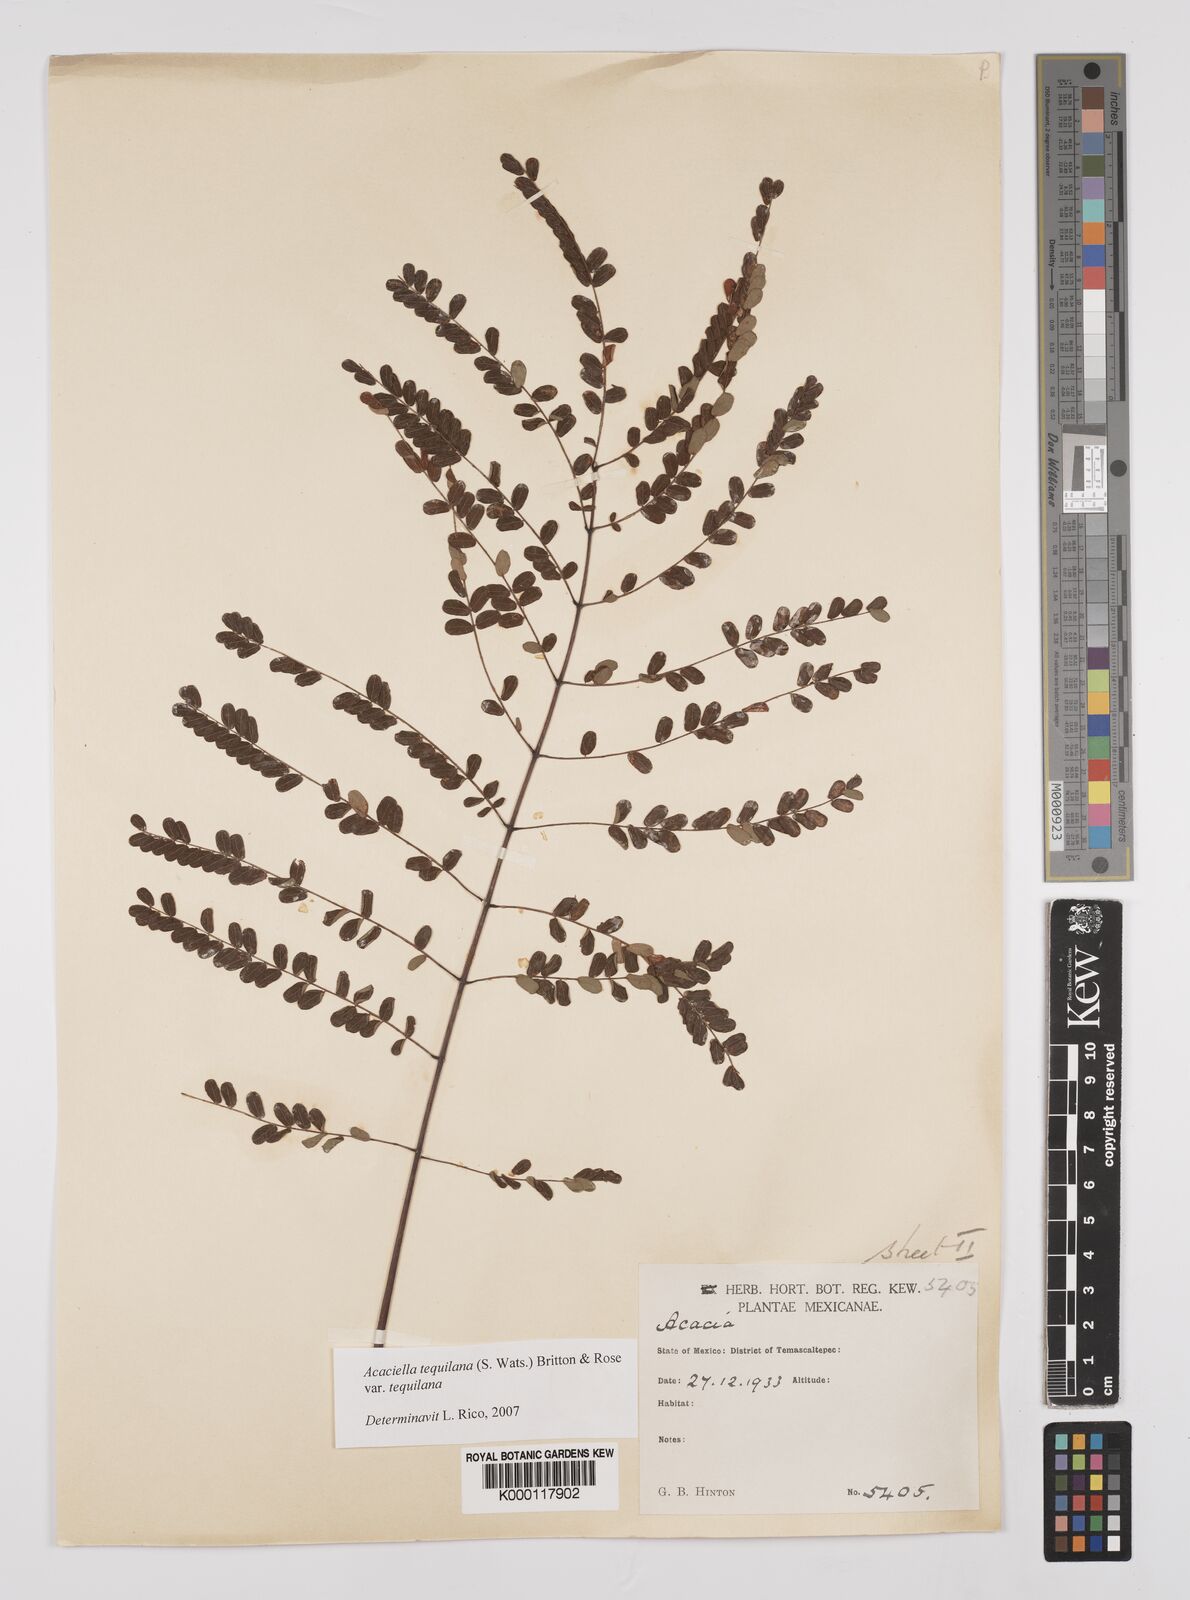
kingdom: Plantae
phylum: Tracheophyta
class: Magnoliopsida
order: Fabales
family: Fabaceae
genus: Acaciella
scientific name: Acaciella tequilana
